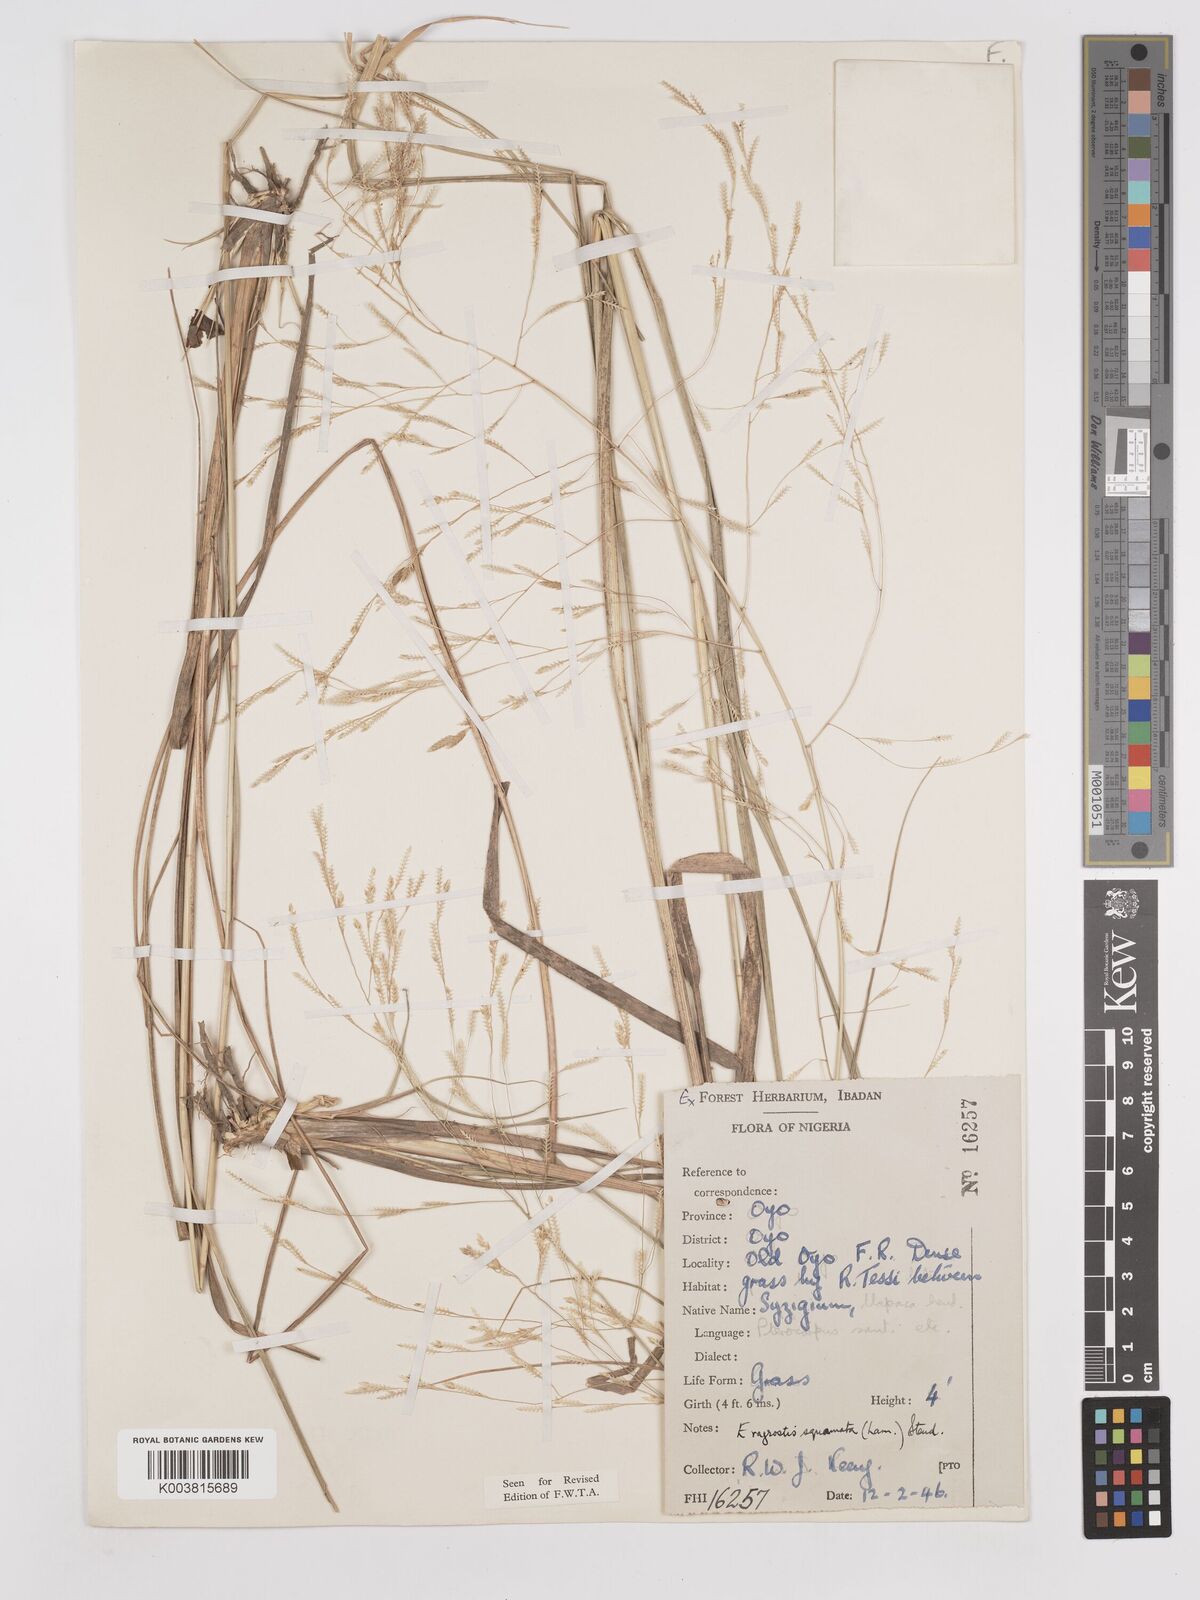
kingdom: Plantae
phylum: Tracheophyta
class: Liliopsida
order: Poales
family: Poaceae
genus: Eragrostis
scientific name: Eragrostis squamata
